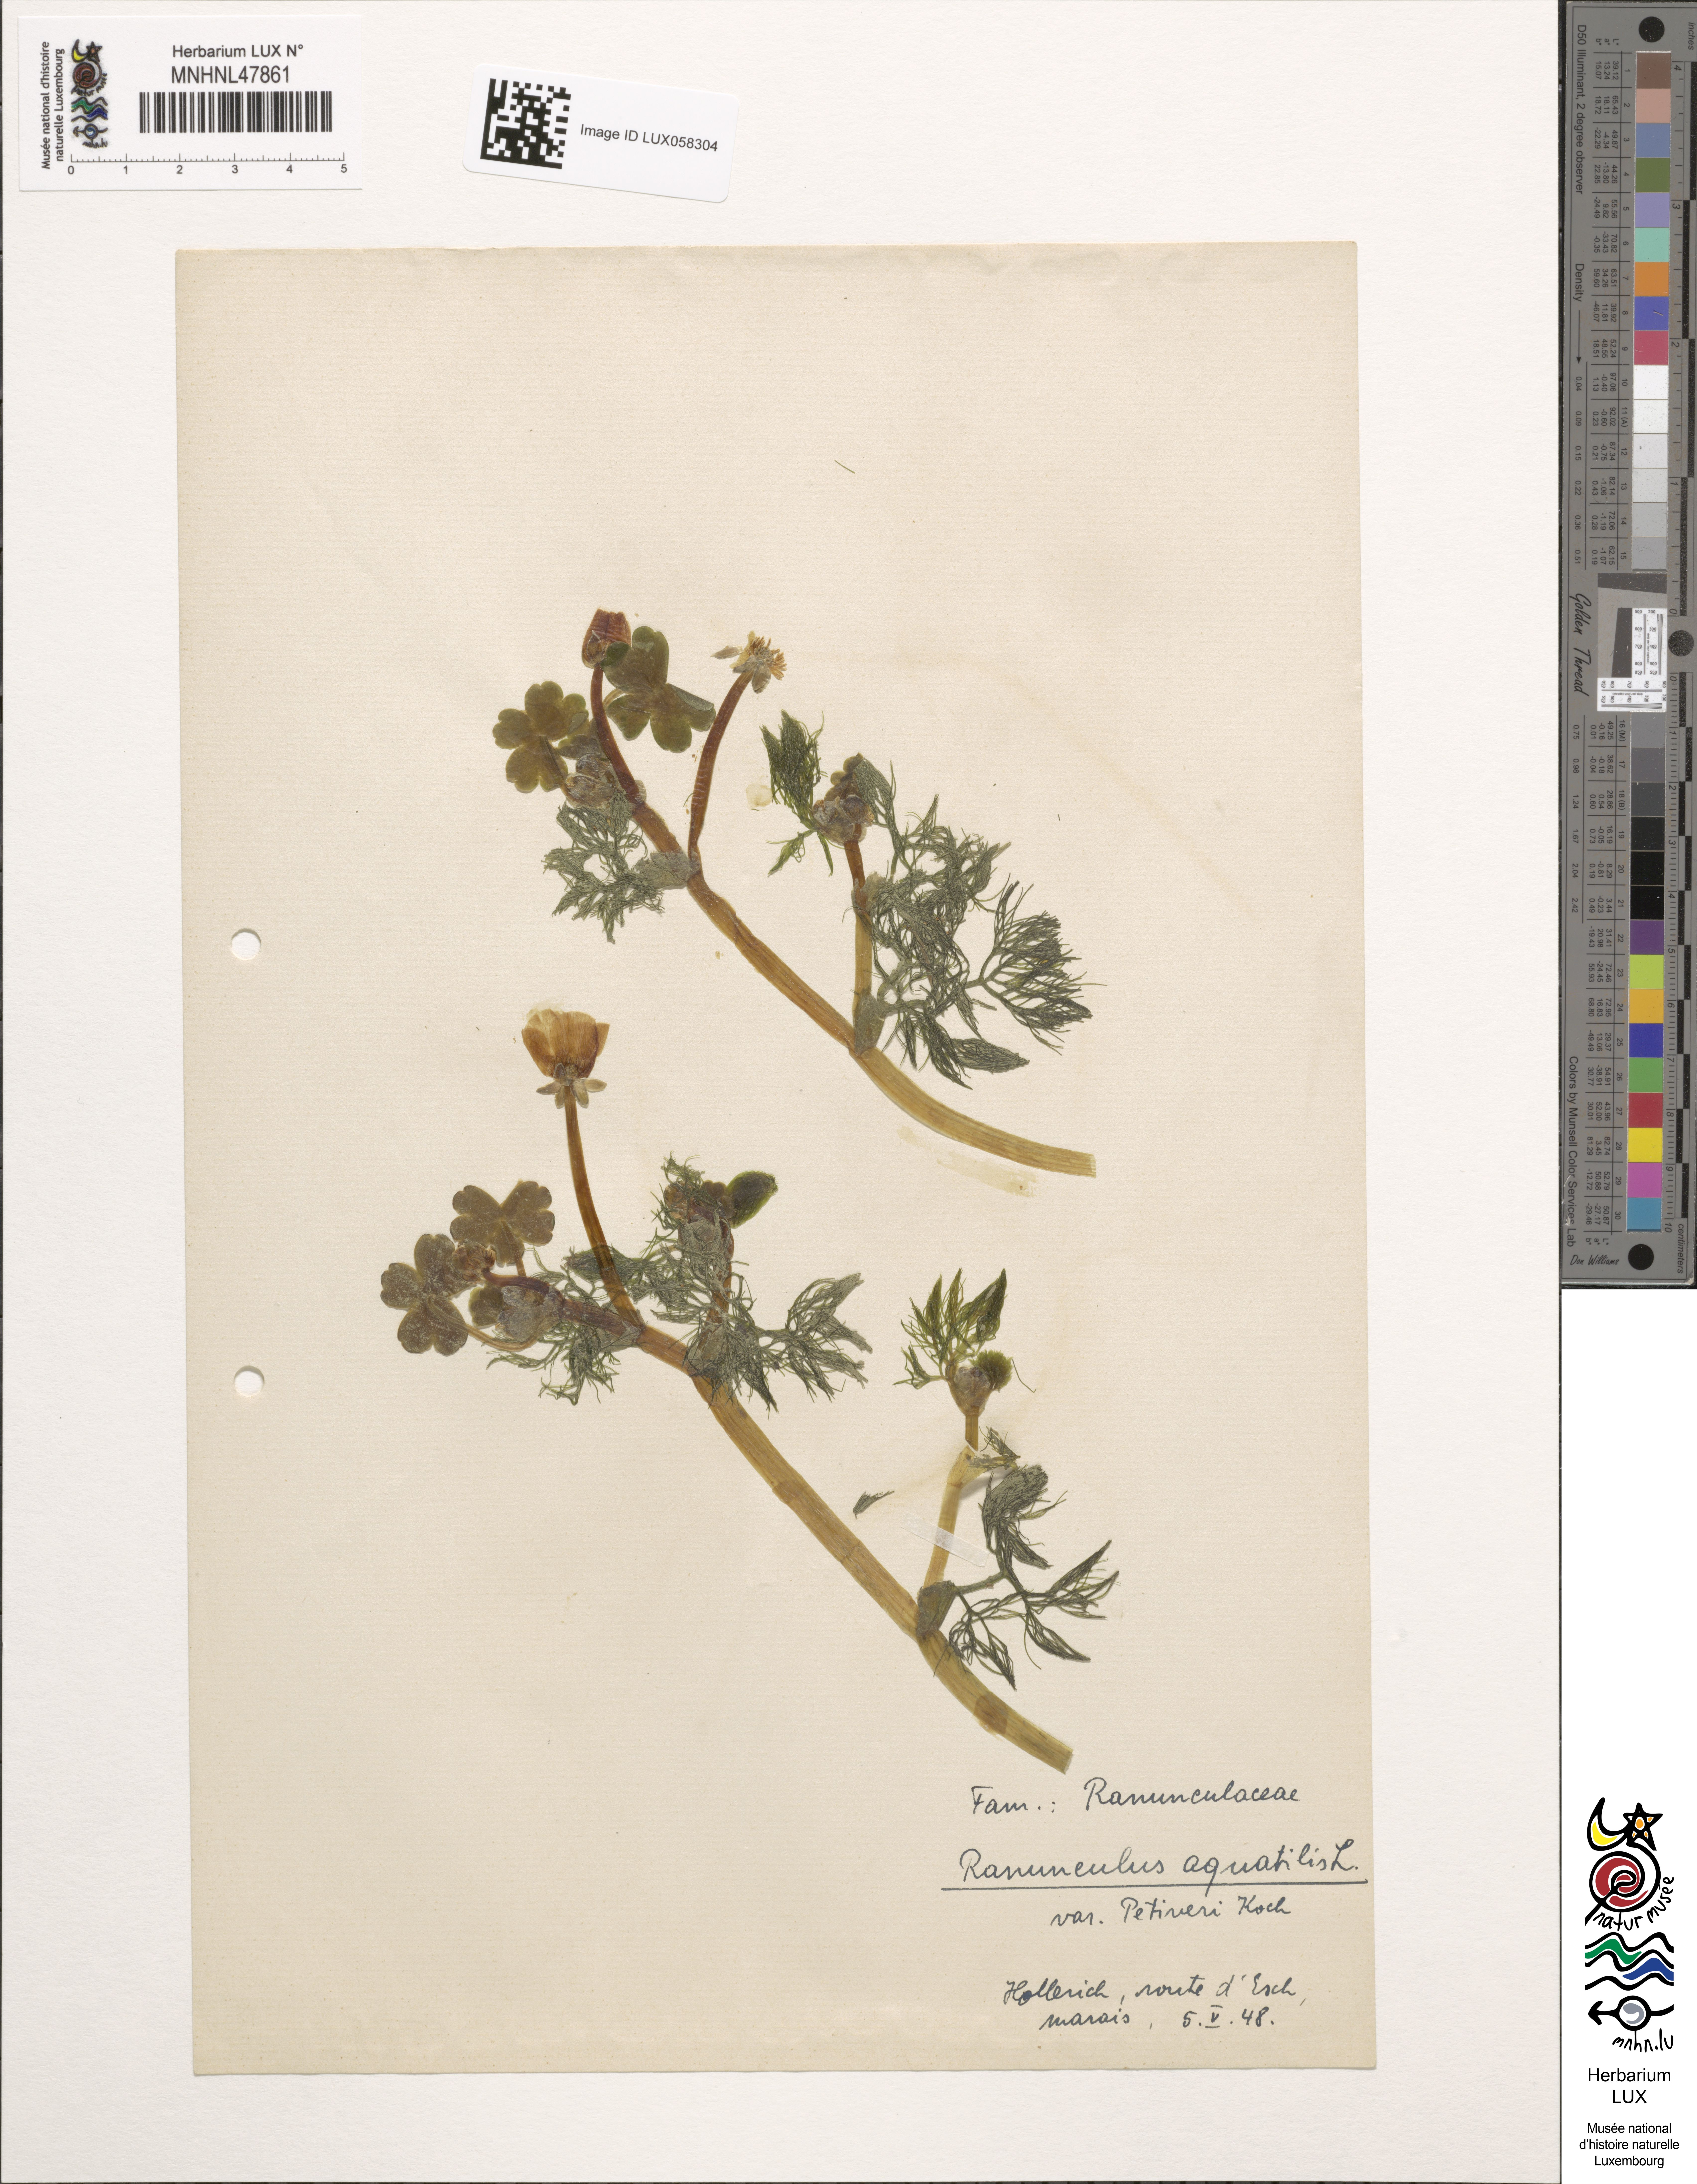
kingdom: Plantae
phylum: Tracheophyta
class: Magnoliopsida
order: Ranunculales
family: Ranunculaceae
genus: Ranunculus
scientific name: Ranunculus aquatilis
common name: Common water-crowfoot
